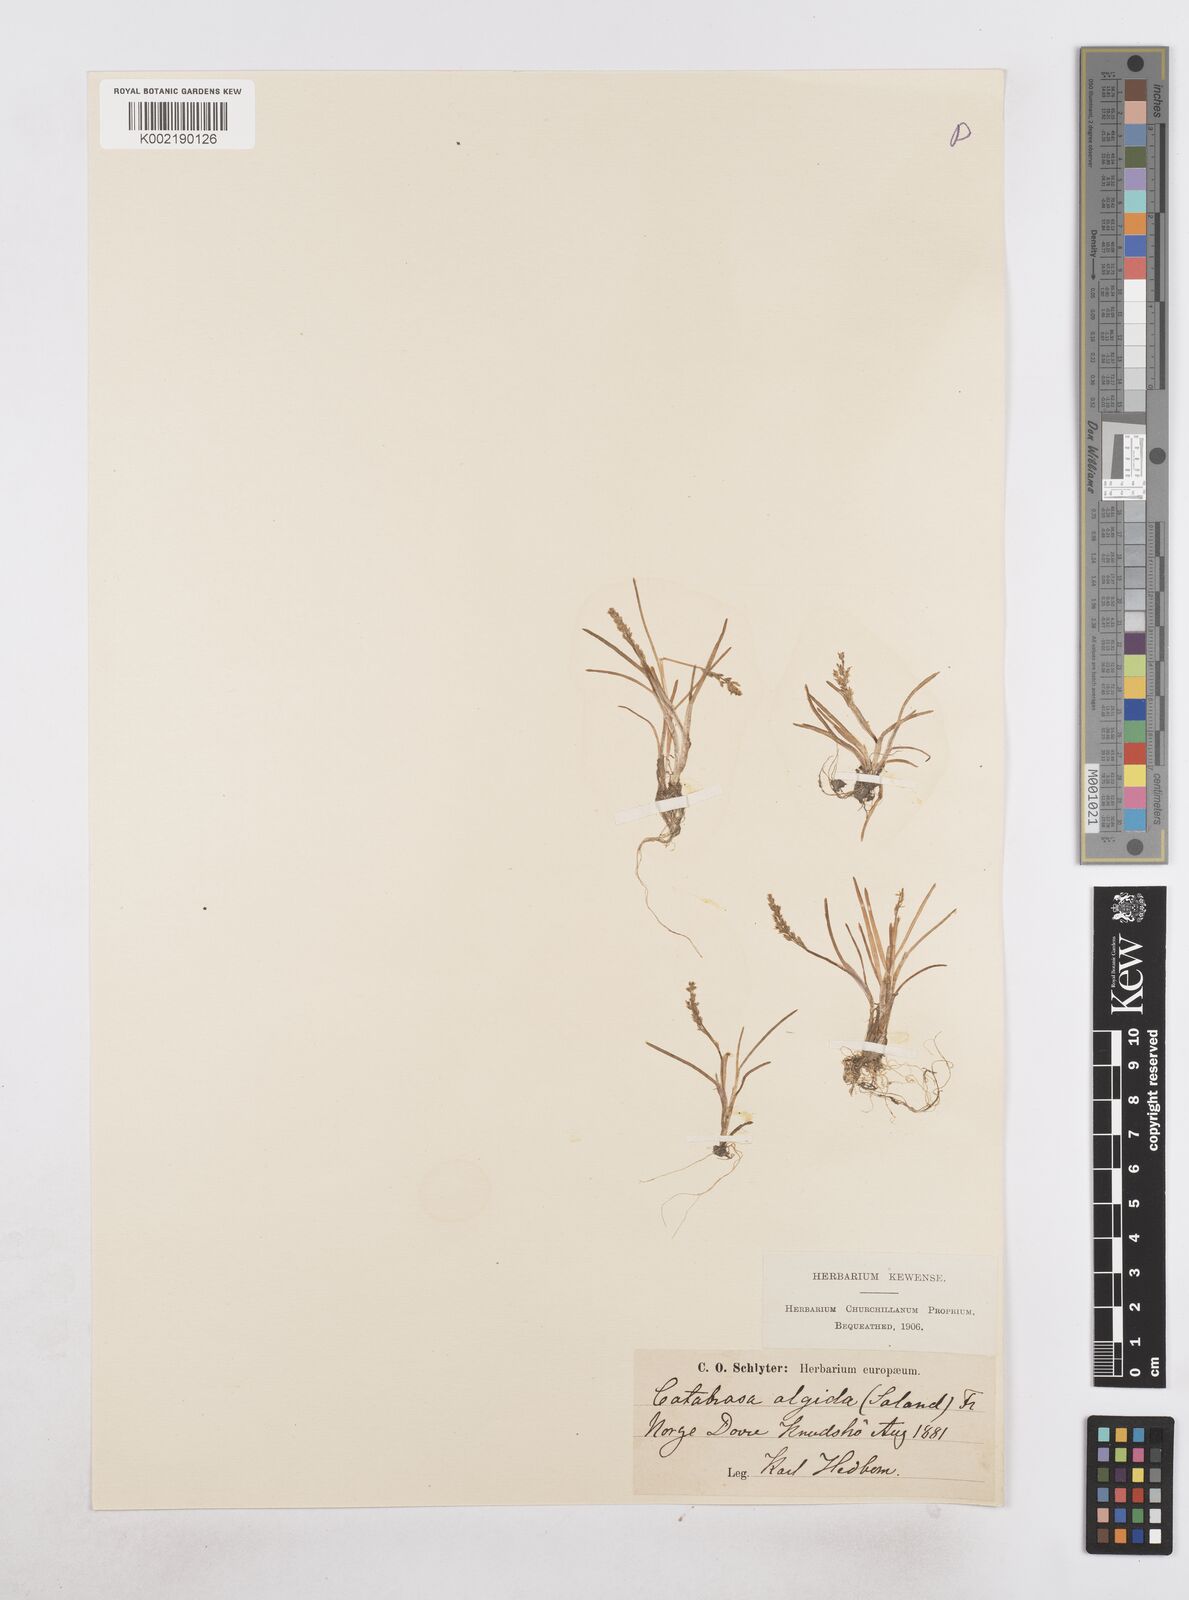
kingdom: Plantae
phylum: Tracheophyta
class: Liliopsida
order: Poales
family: Poaceae
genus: Phippsia
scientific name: Phippsia algida
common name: Ice grass
